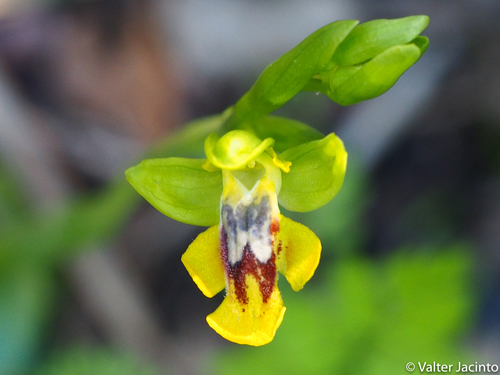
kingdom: Plantae
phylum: Tracheophyta
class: Liliopsida
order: Asparagales
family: Orchidaceae
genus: Ophrys
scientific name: Ophrys lutea
